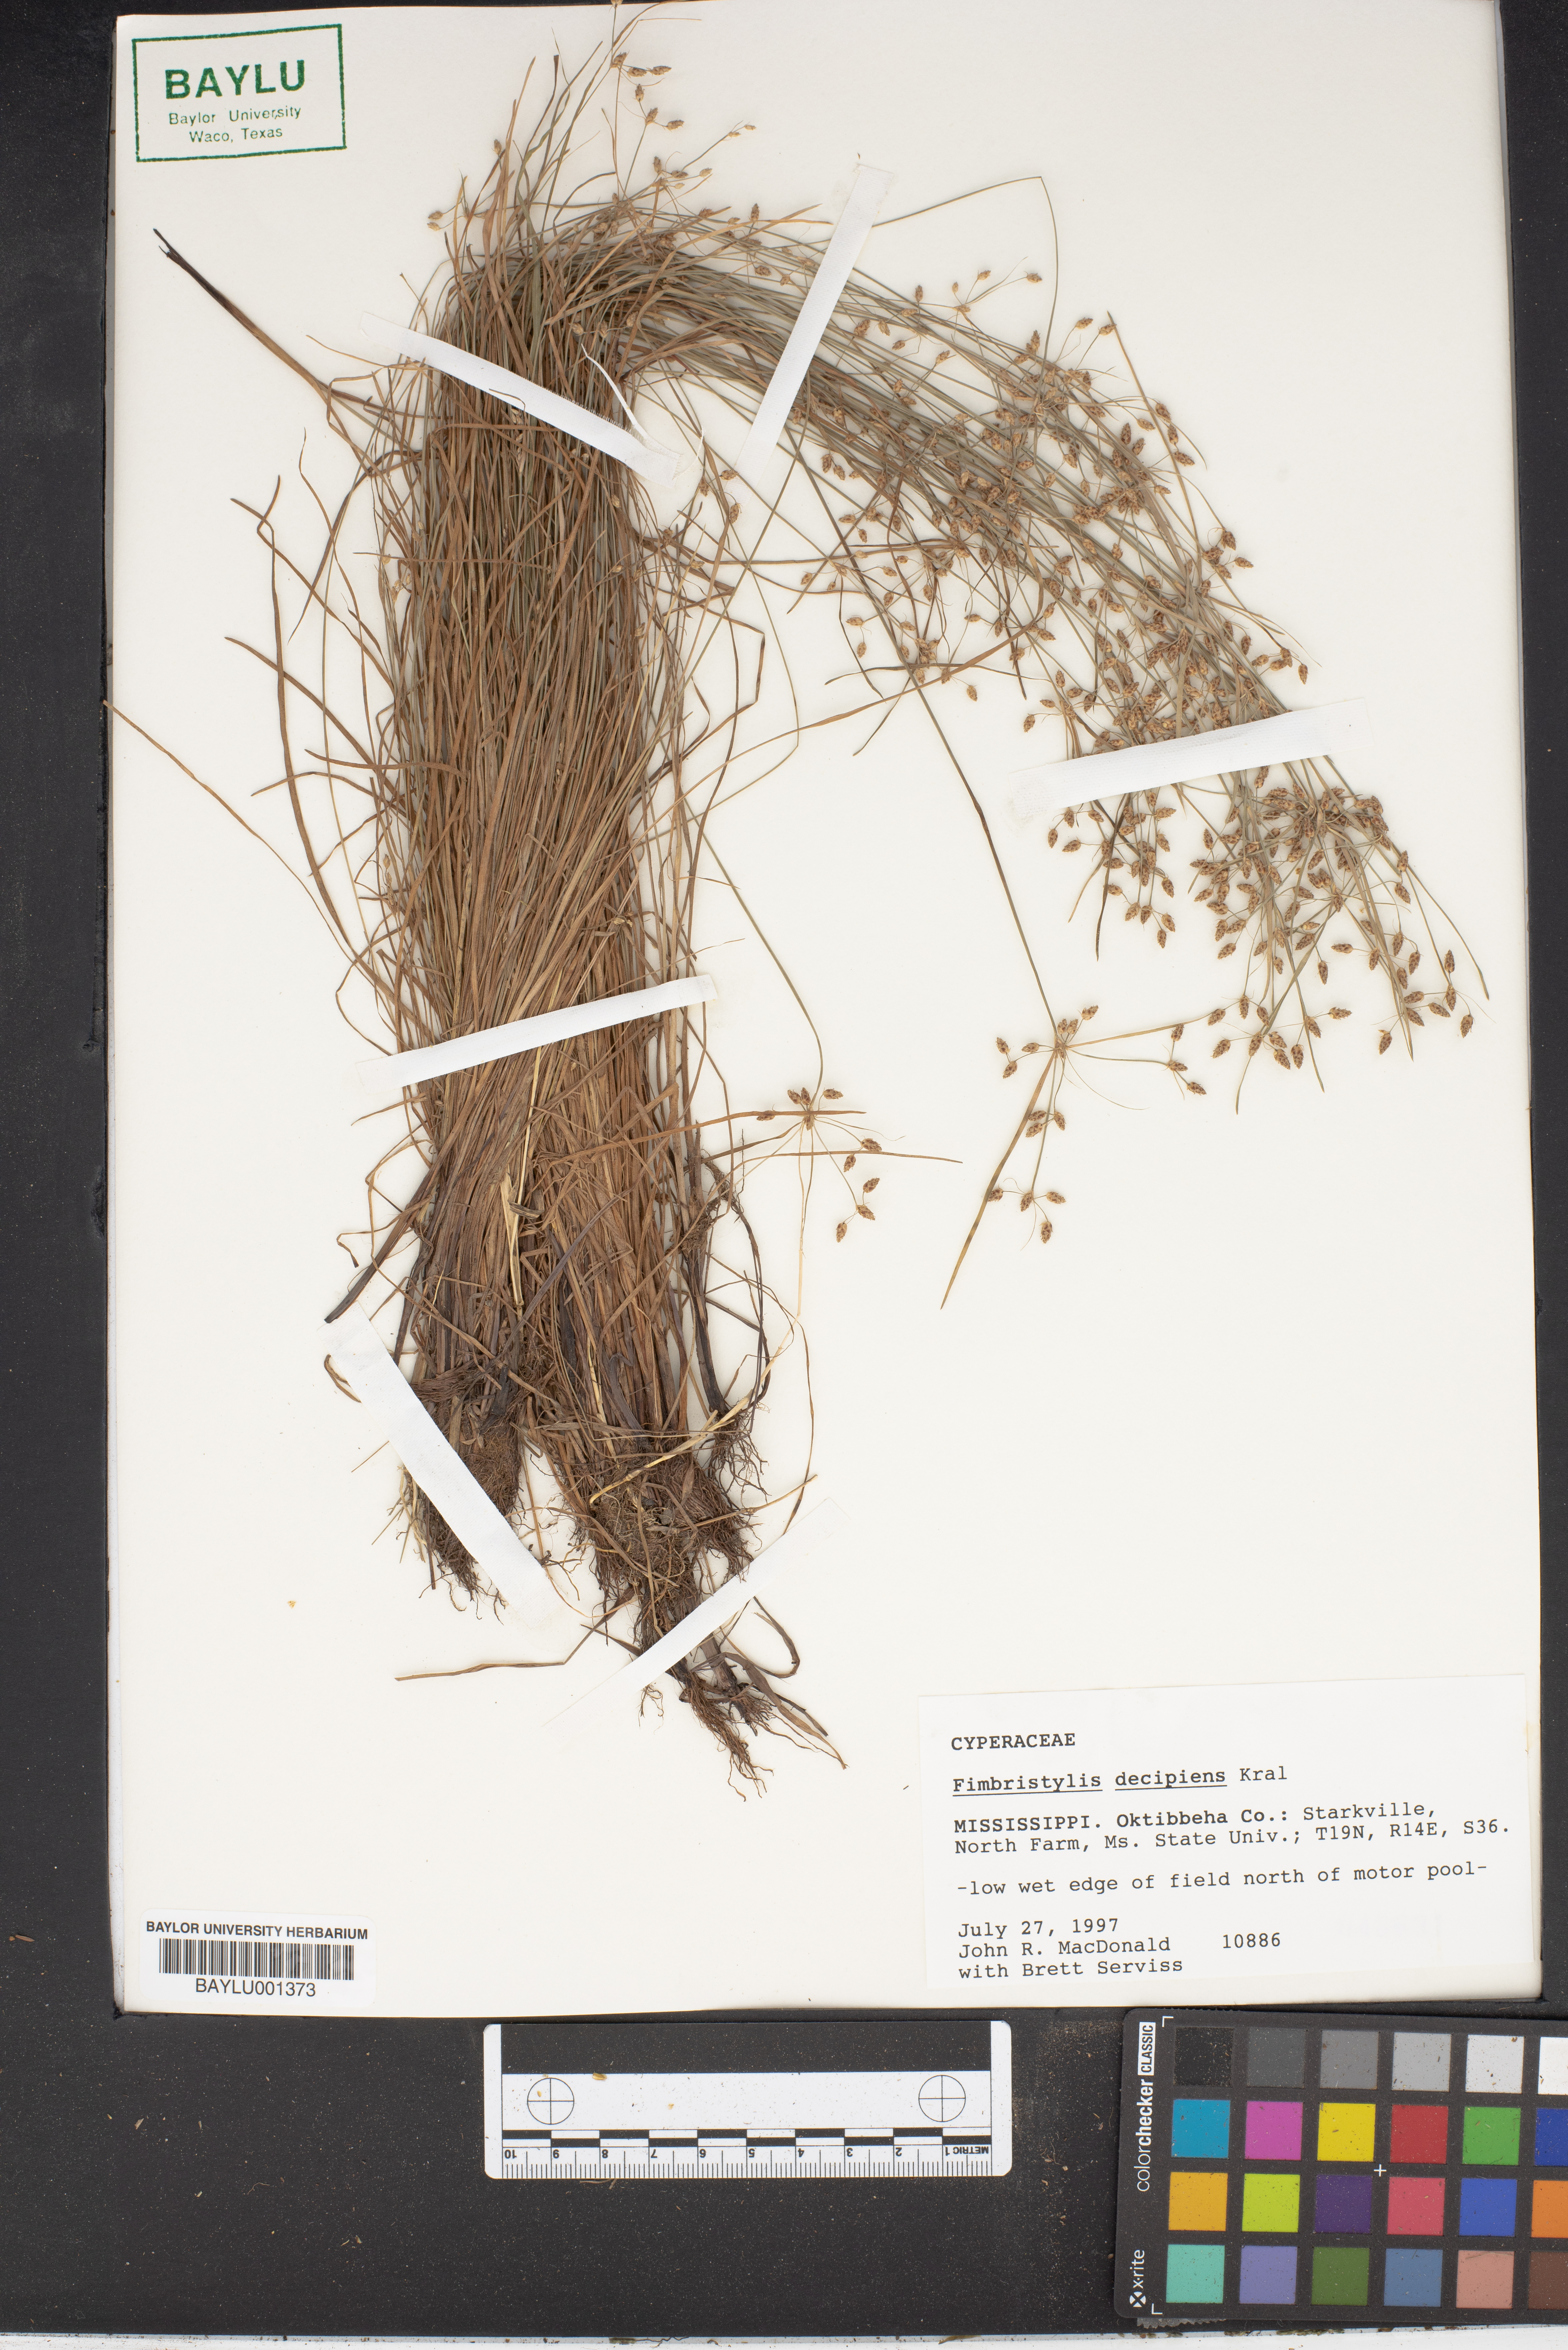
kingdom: Plantae
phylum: Tracheophyta
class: Liliopsida
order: Poales
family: Cyperaceae
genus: Fimbristylis
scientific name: Fimbristylis decipiens
